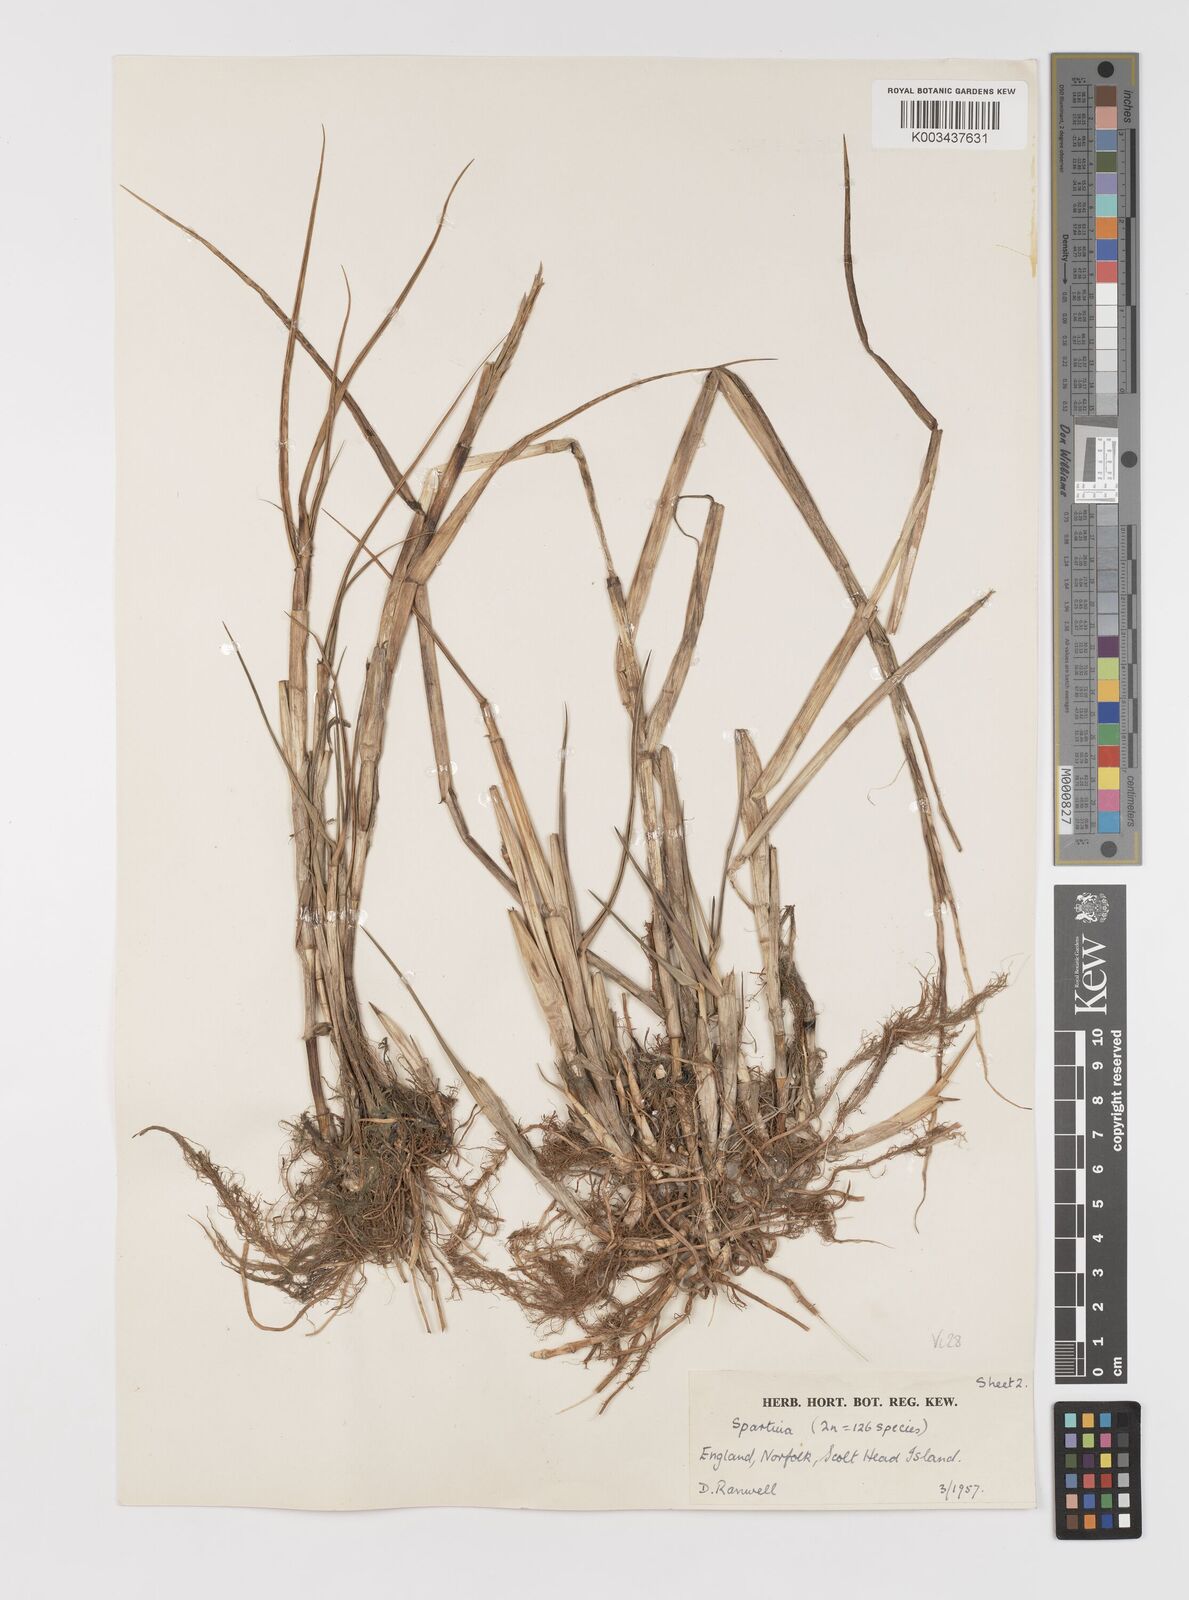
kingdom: Plantae
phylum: Tracheophyta
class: Liliopsida
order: Poales
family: Poaceae
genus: Sporobolus
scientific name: Sporobolus anglicus
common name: English cordgrass
